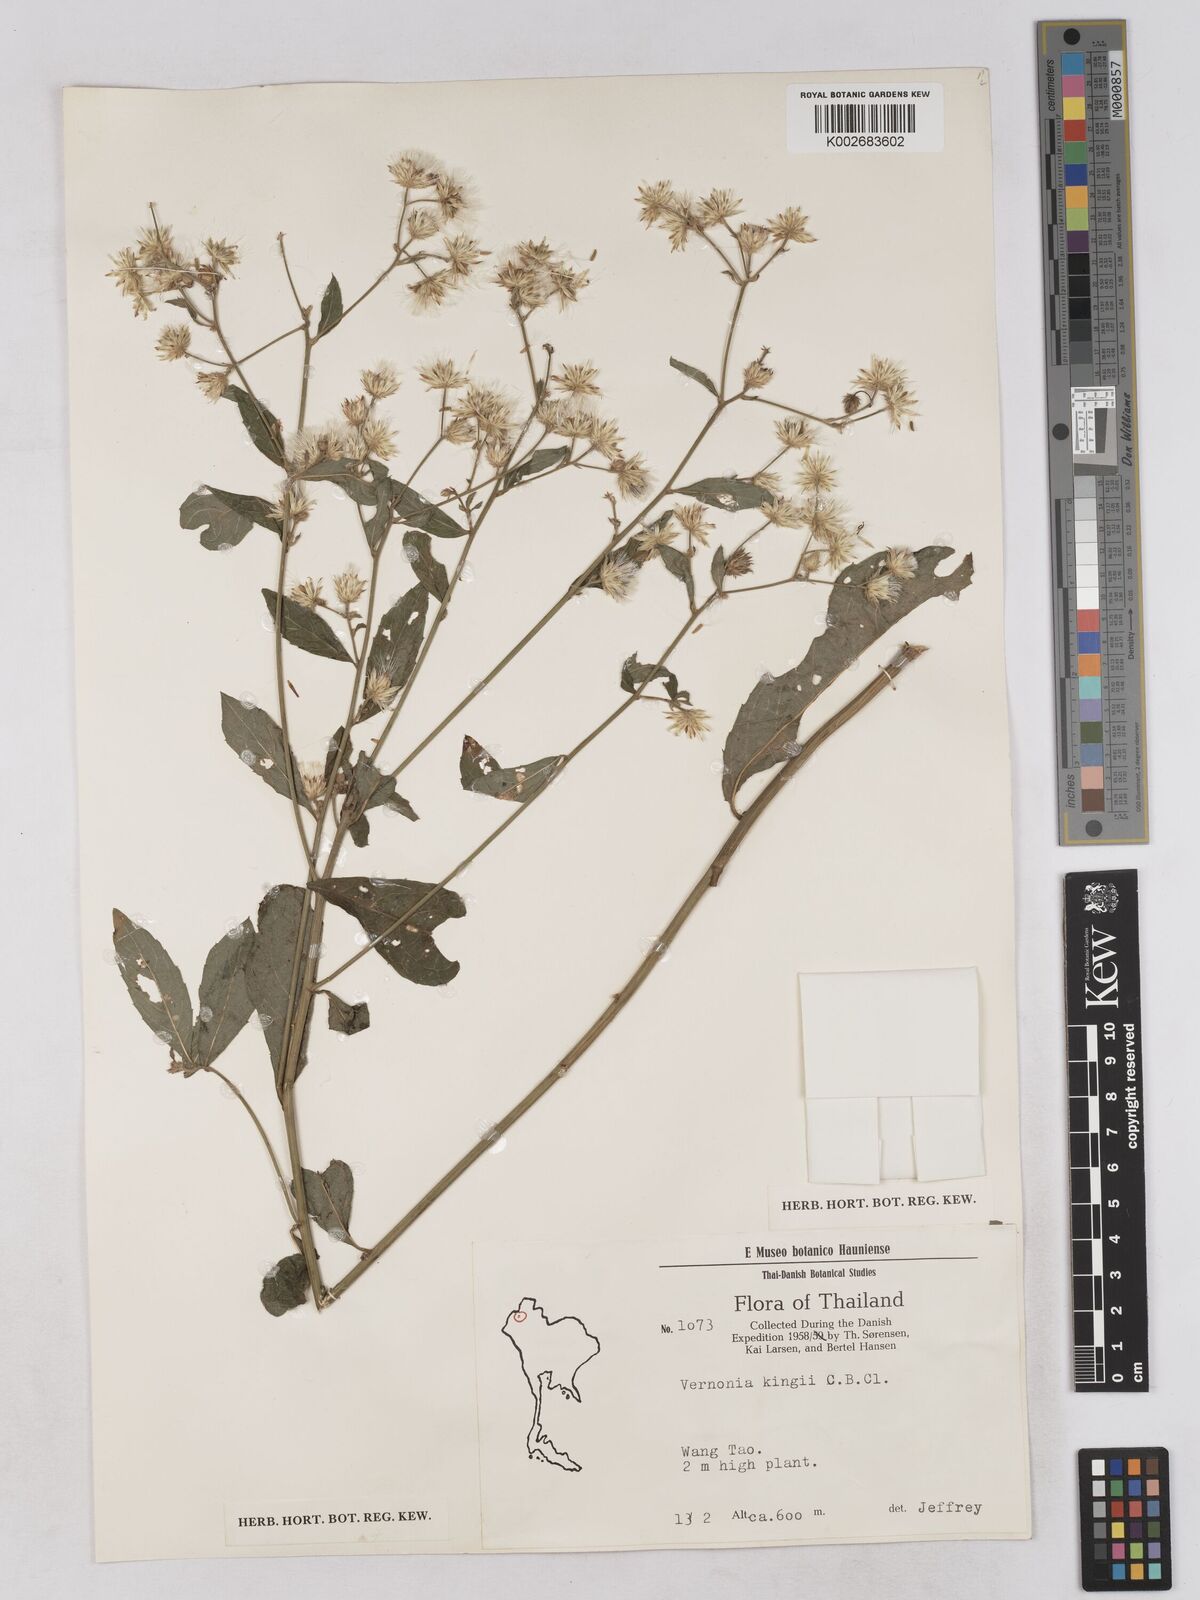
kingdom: Plantae
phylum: Tracheophyta
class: Magnoliopsida
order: Asterales
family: Asteraceae
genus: Acilepis
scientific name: Acilepis kingii
